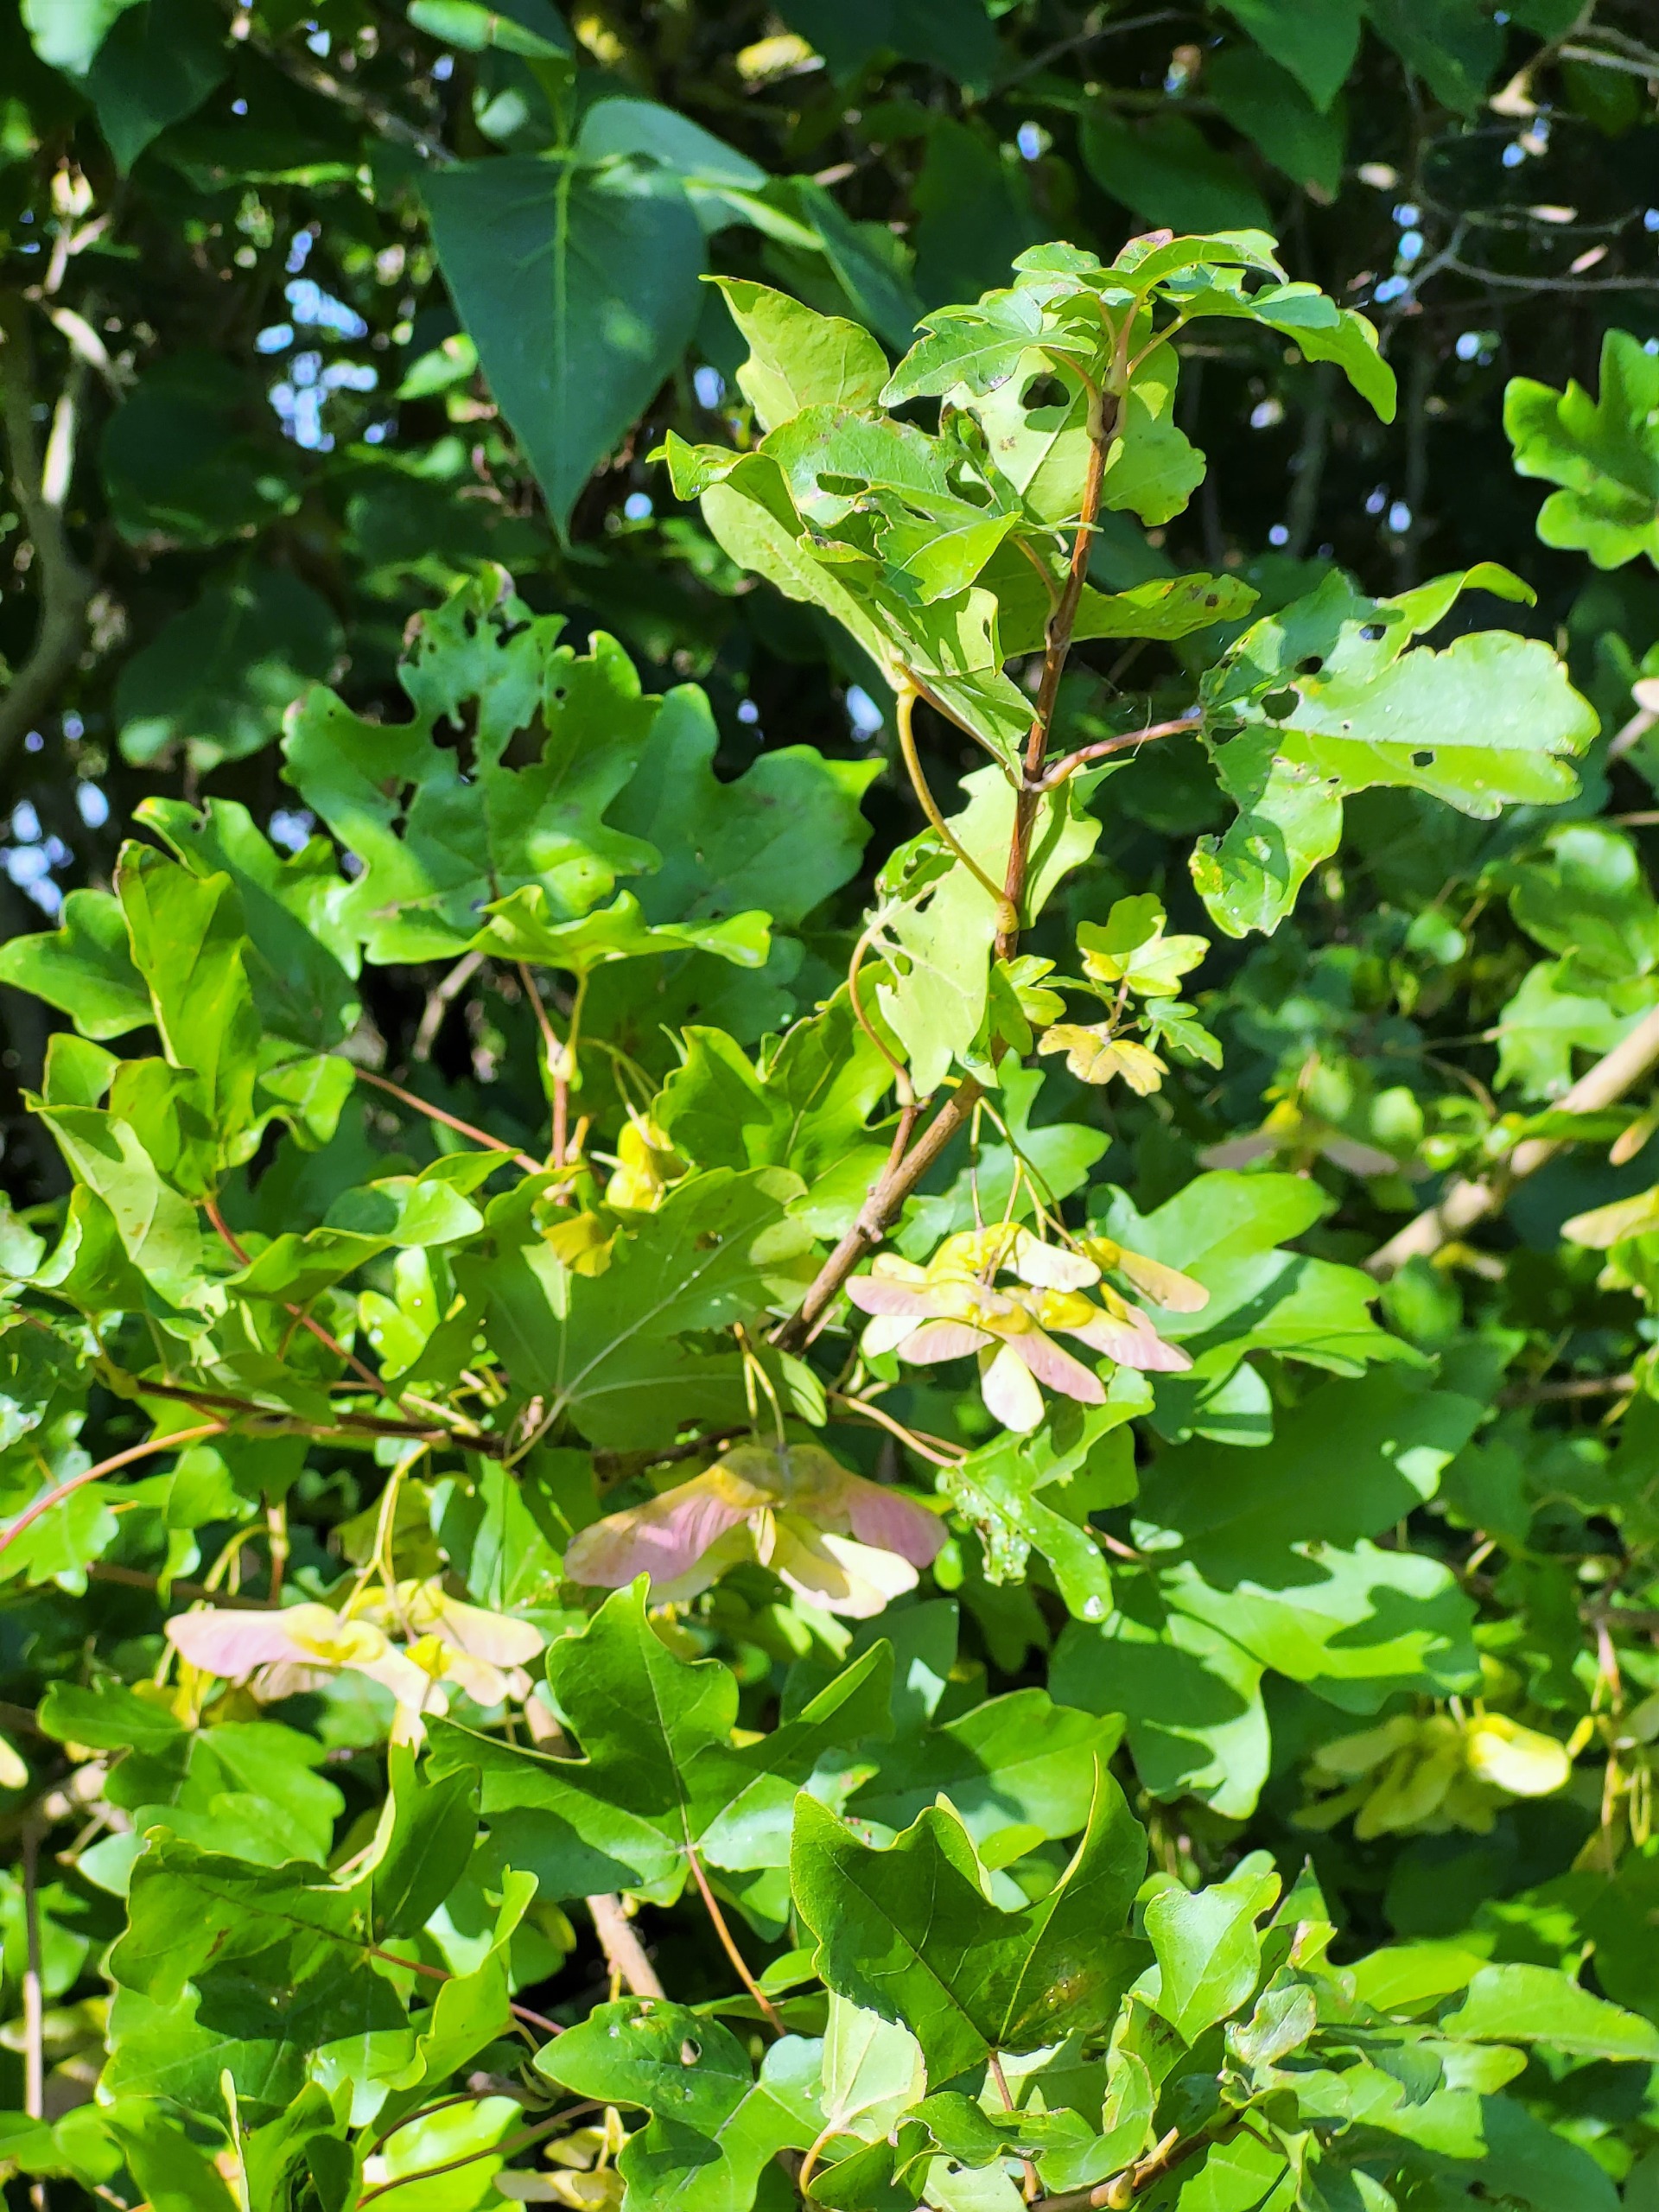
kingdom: Plantae
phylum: Tracheophyta
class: Magnoliopsida
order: Sapindales
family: Sapindaceae
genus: Acer
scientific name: Acer campestre
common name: Navr
